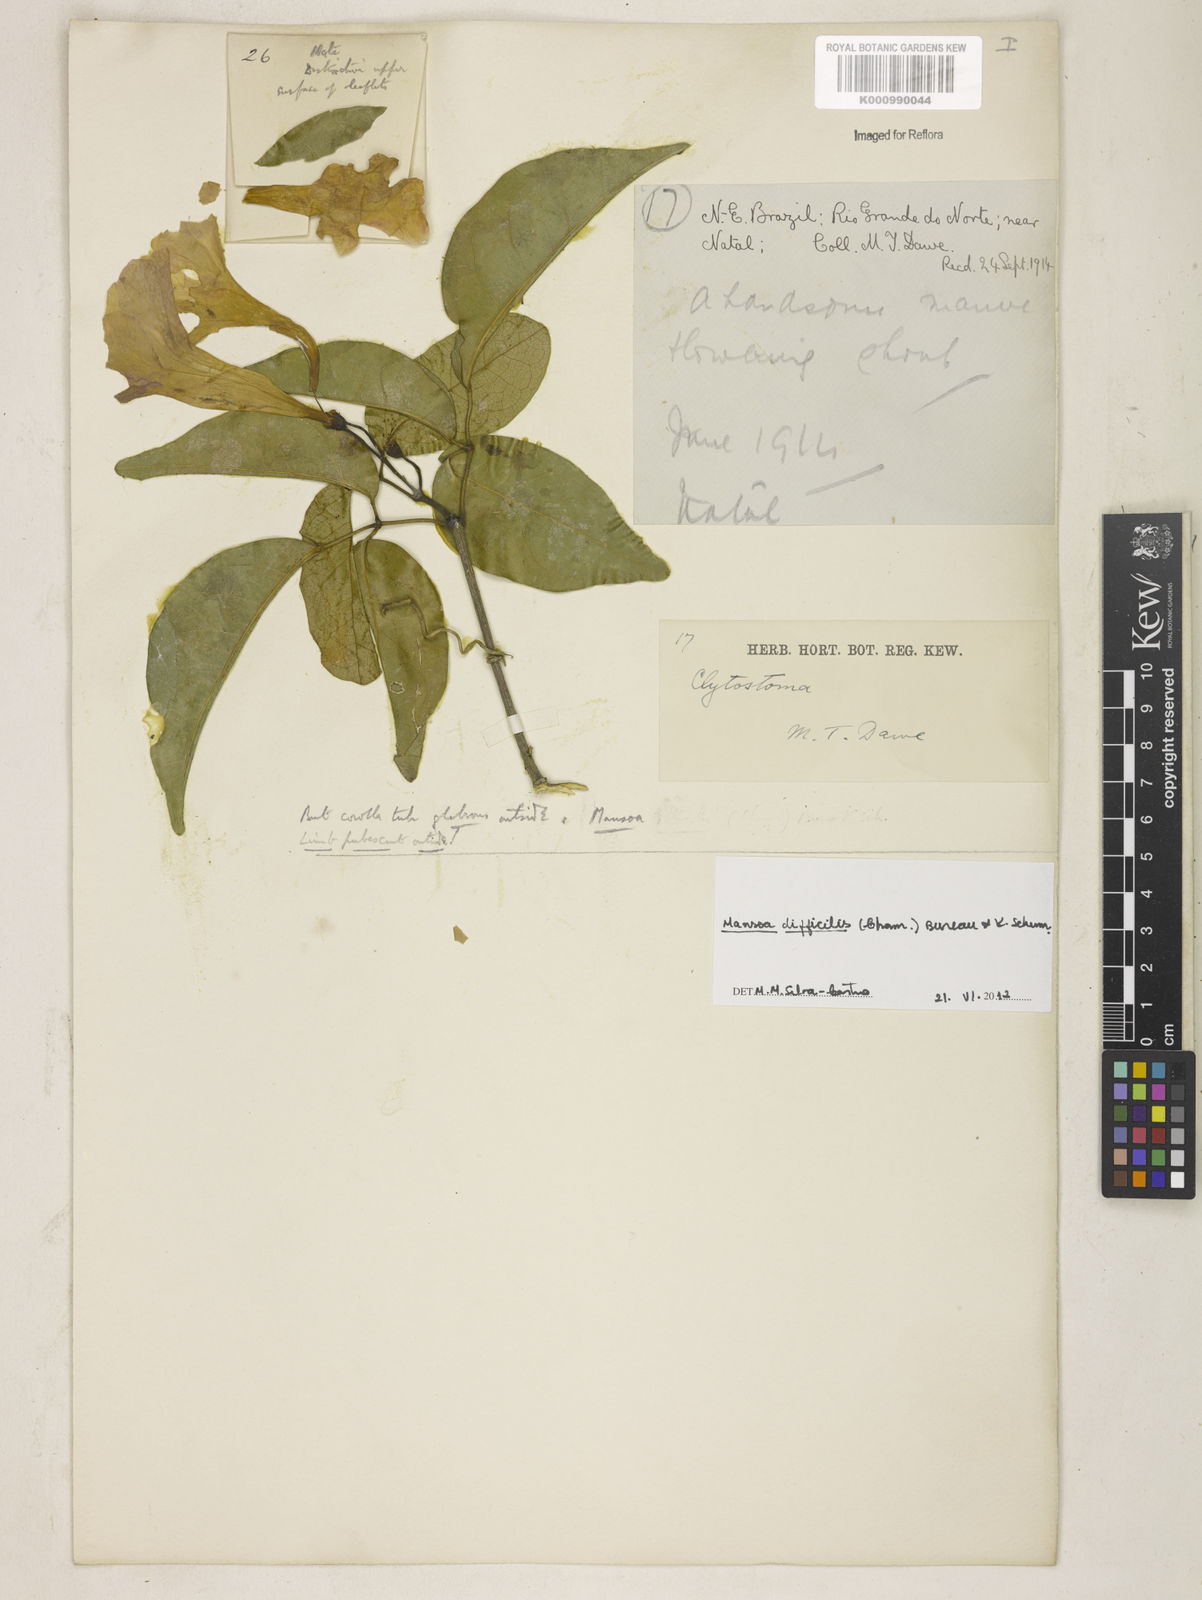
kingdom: Plantae
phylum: Tracheophyta
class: Magnoliopsida
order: Lamiales
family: Bignoniaceae
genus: Mansoa
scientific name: Mansoa difficilis
